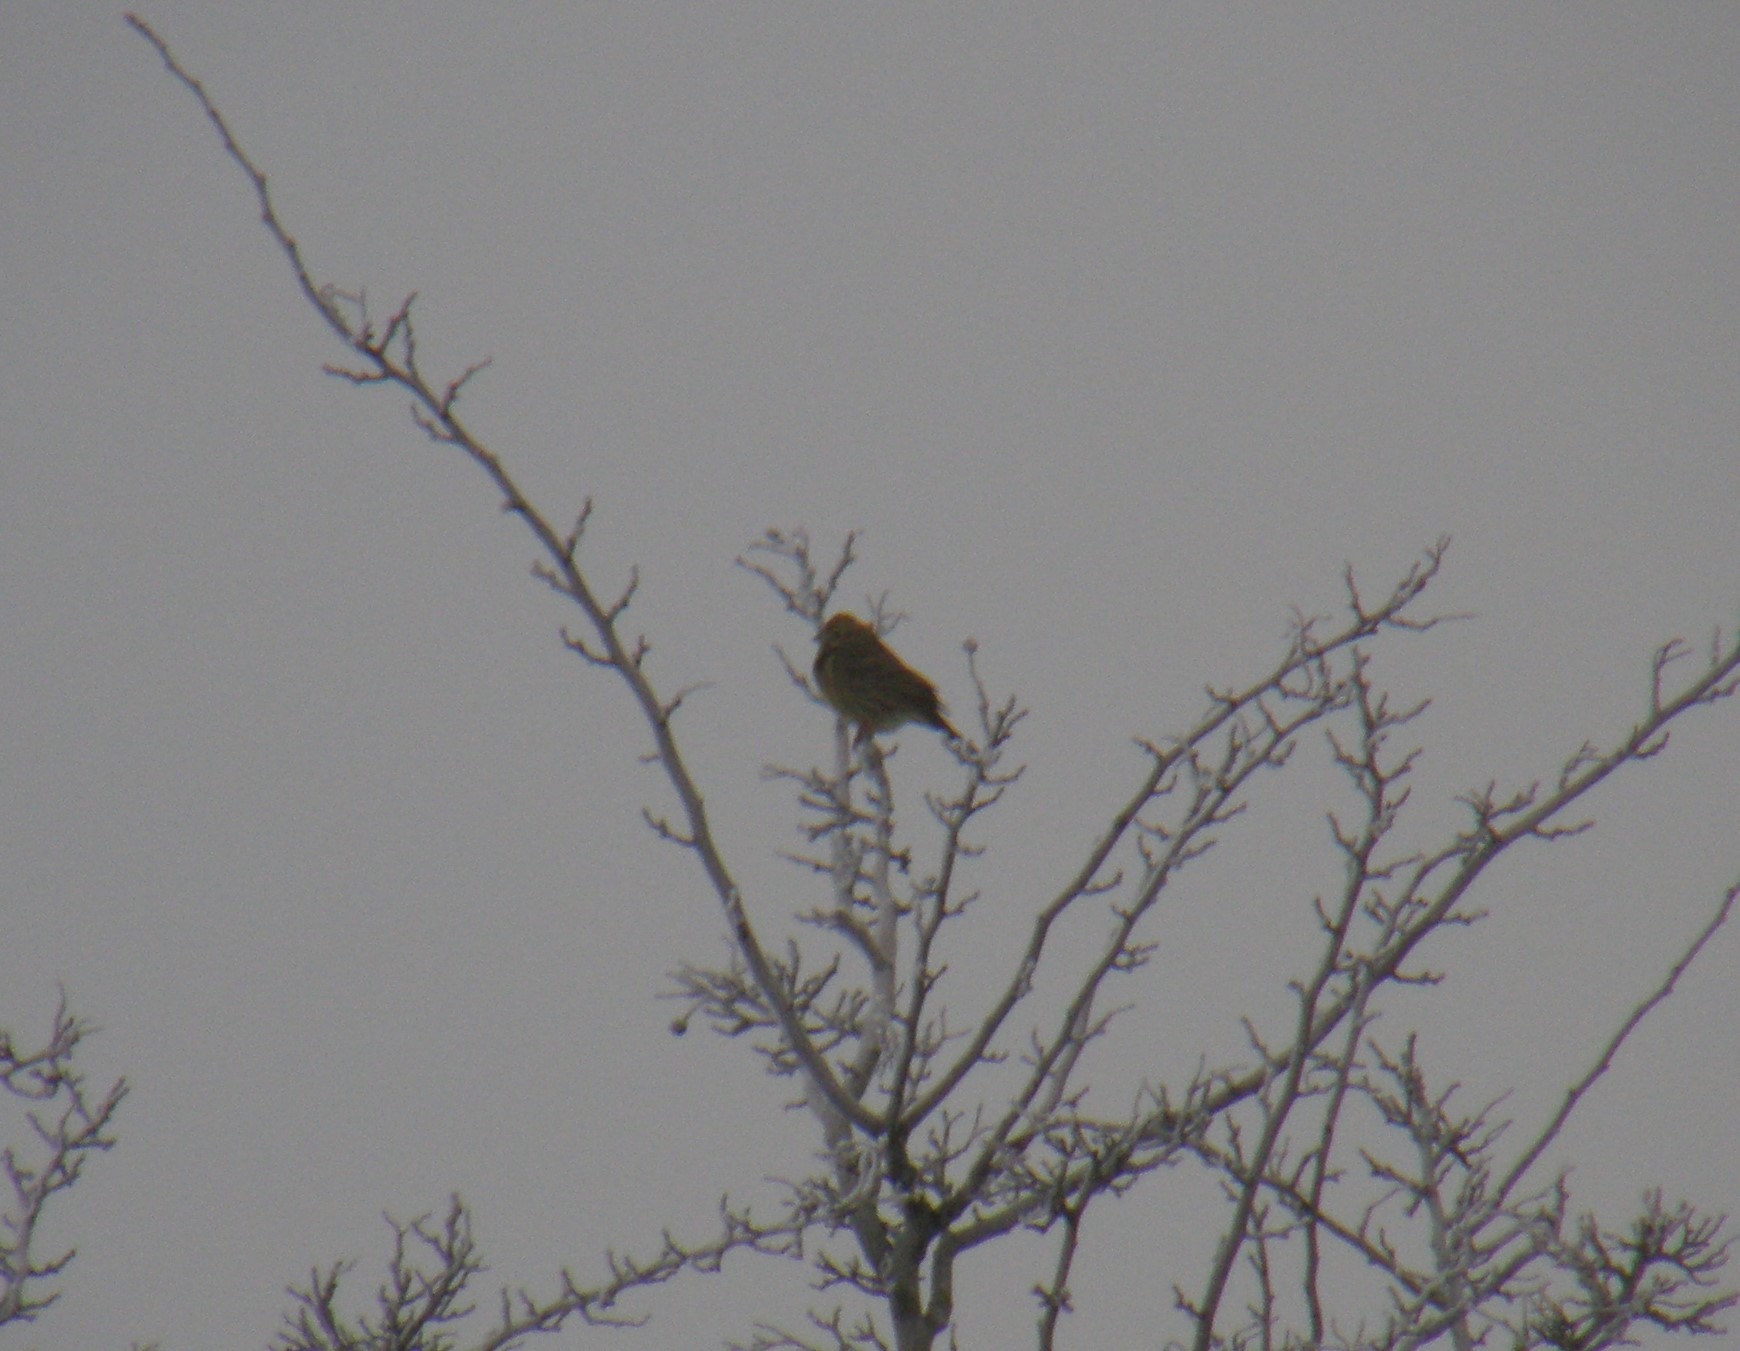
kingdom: Animalia
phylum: Chordata
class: Aves
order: Passeriformes
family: Emberizidae
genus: Emberiza
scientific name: Emberiza citrinella
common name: Gulspurv
